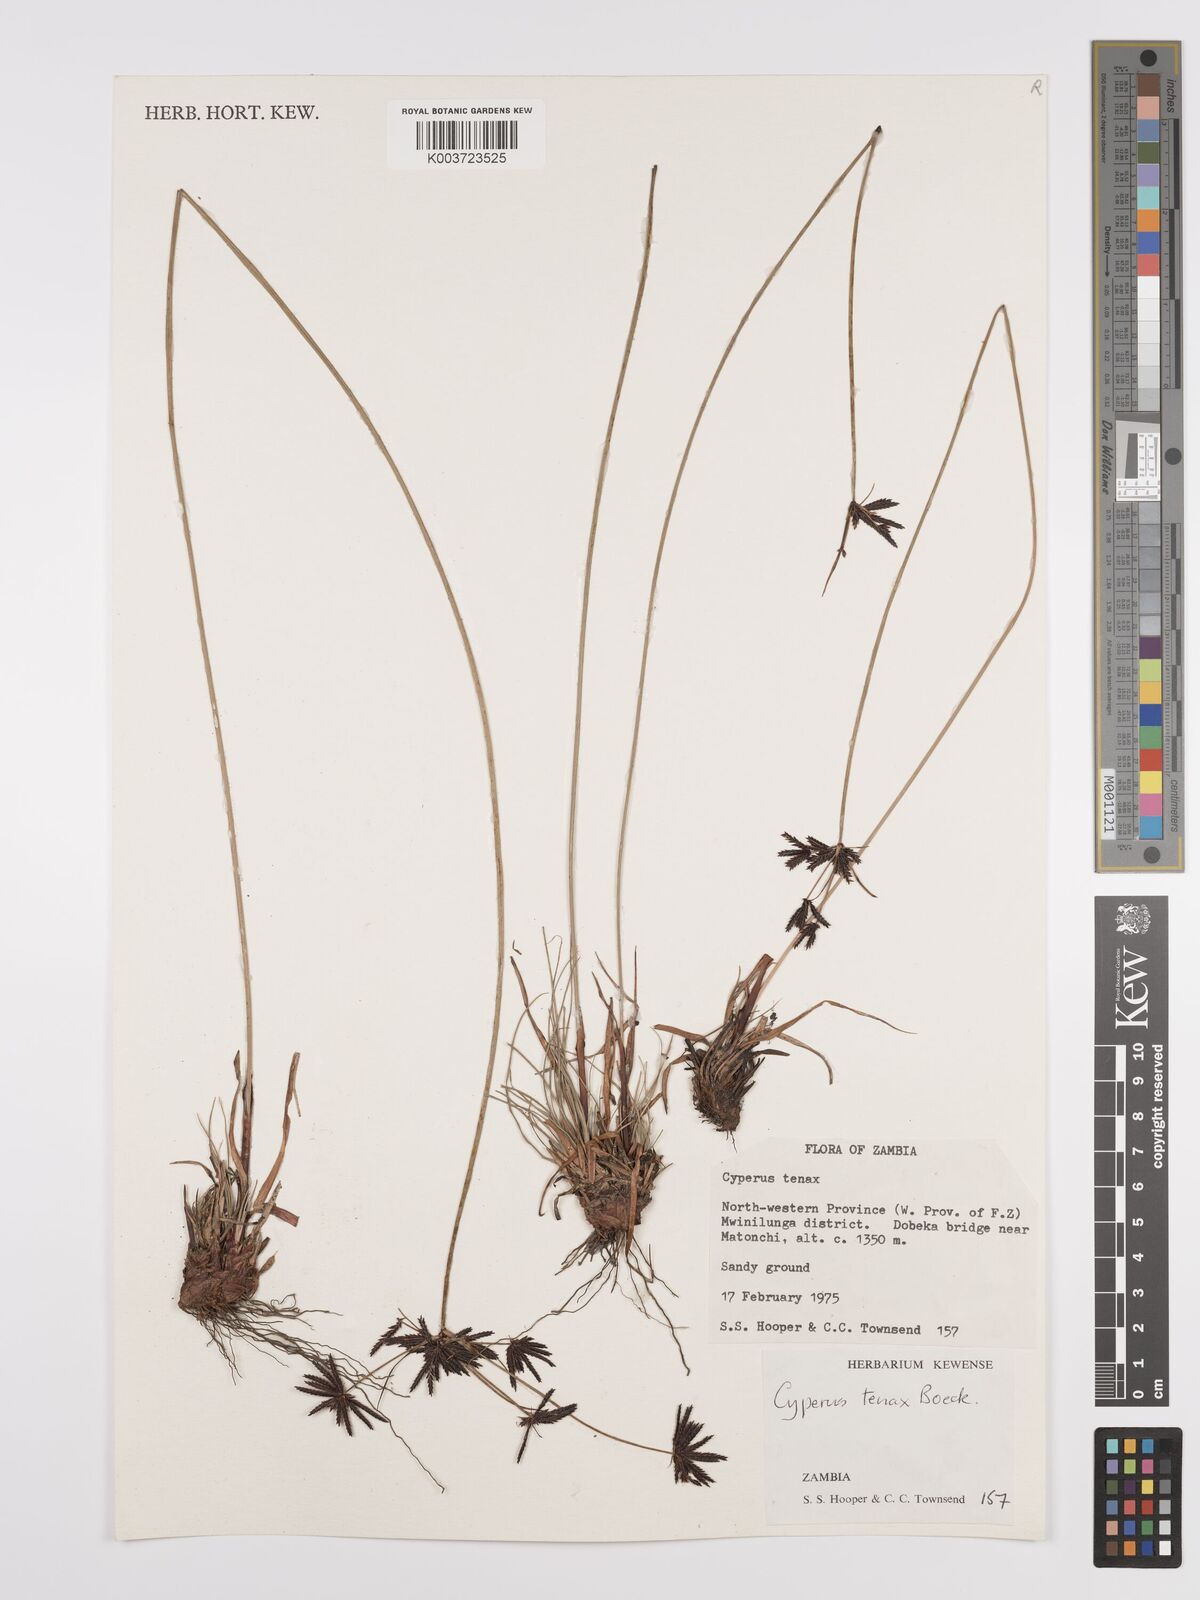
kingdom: Plantae
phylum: Tracheophyta
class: Liliopsida
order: Poales
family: Cyperaceae
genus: Cyperus
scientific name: Cyperus tenax
